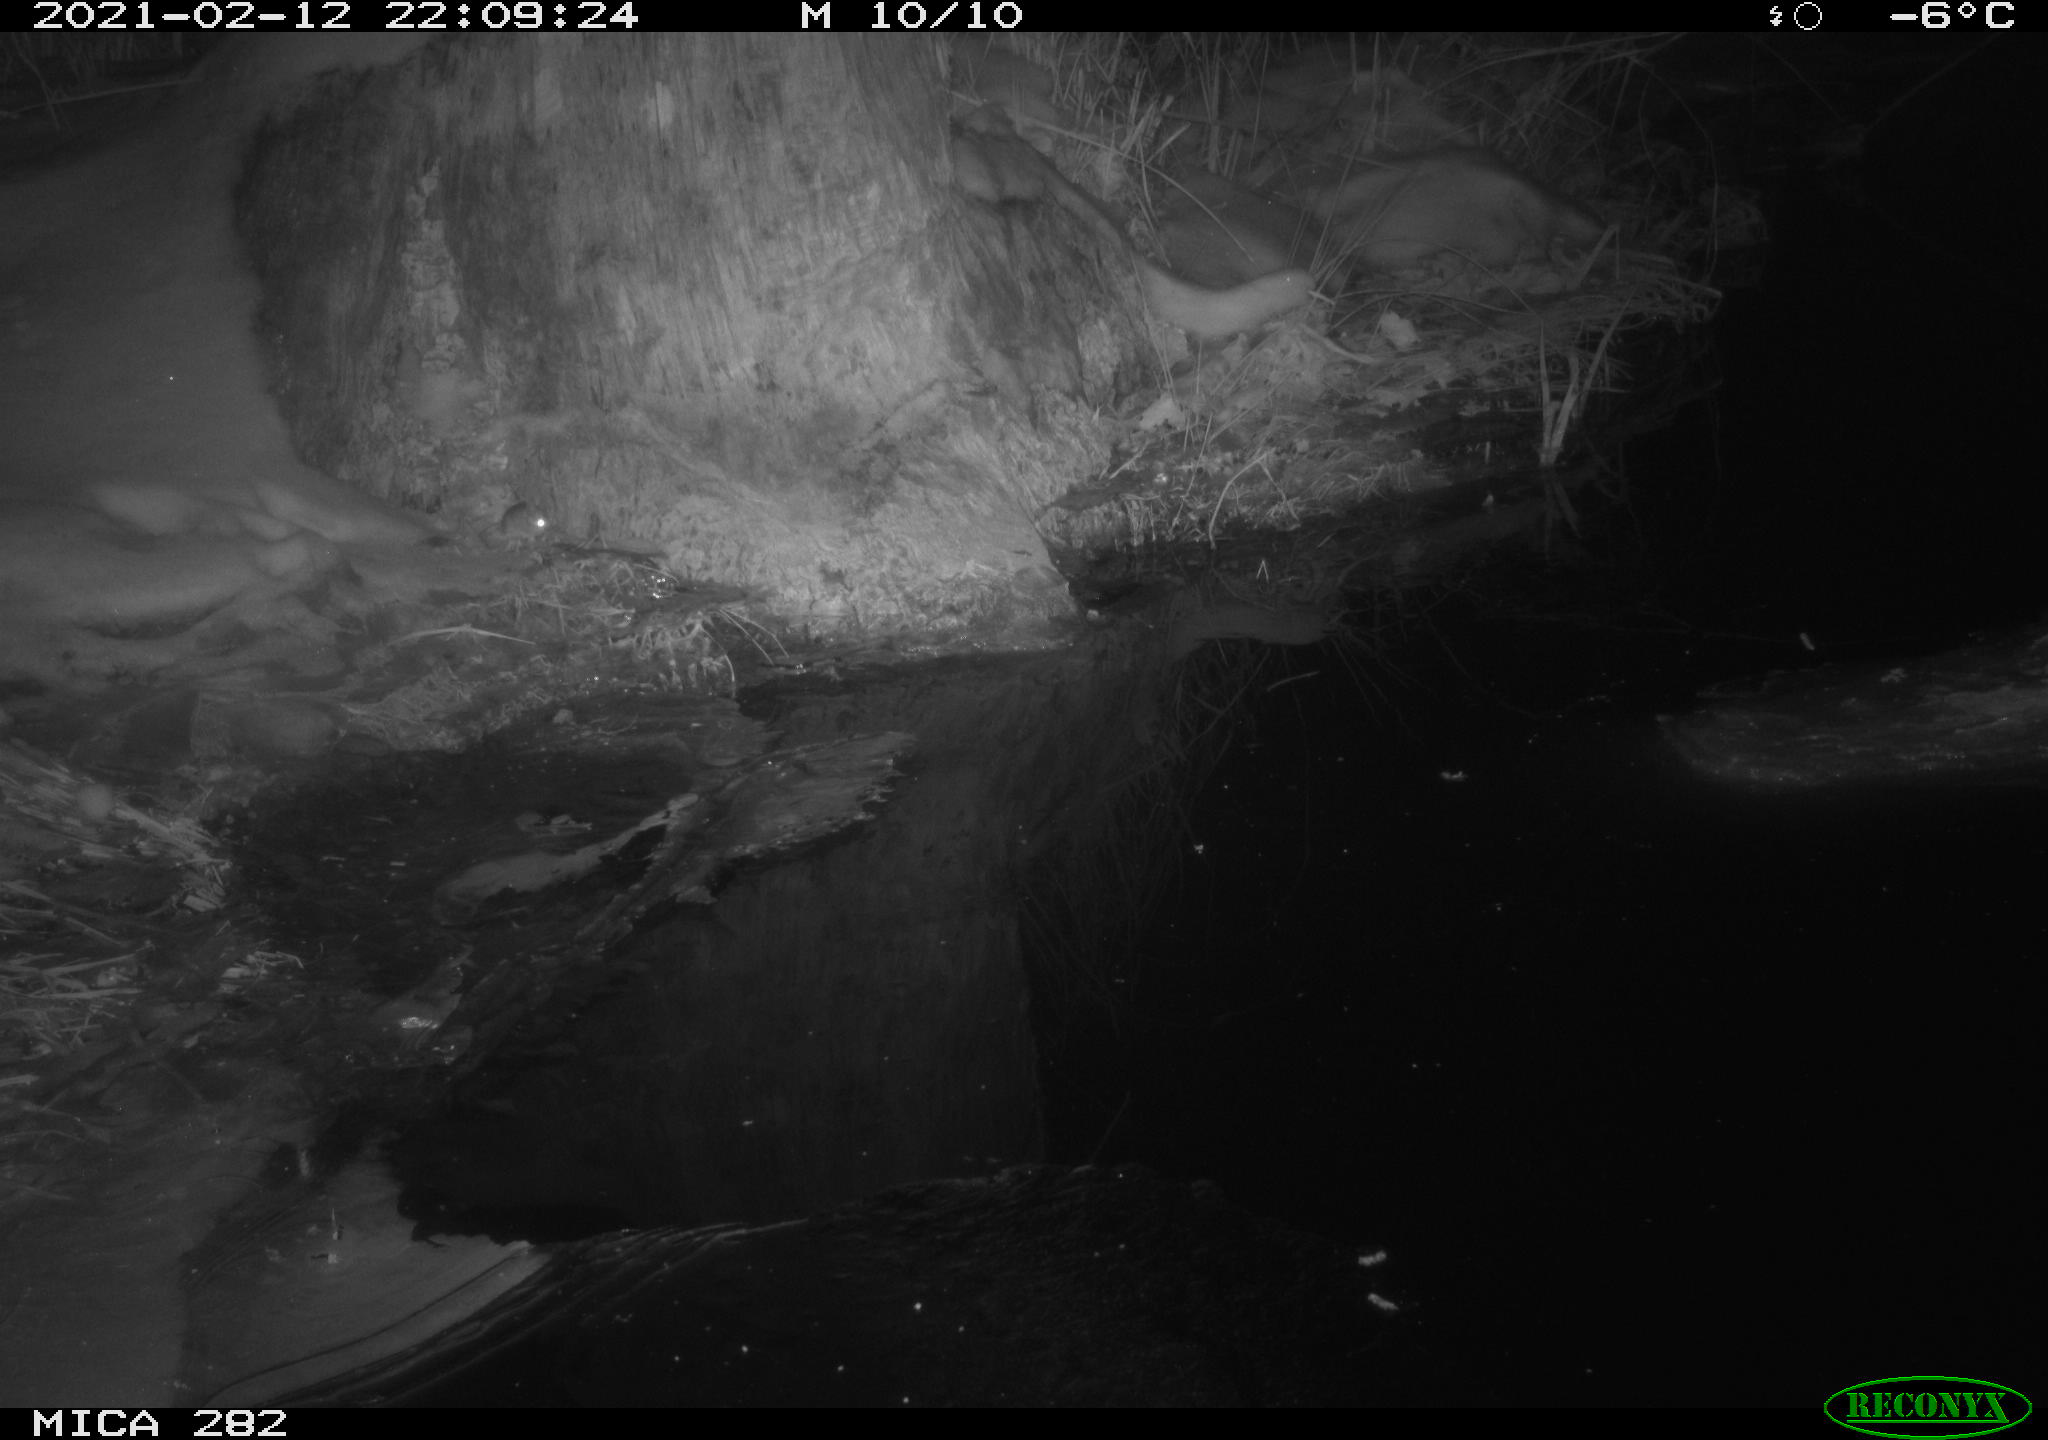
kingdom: Animalia
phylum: Chordata
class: Mammalia
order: Rodentia
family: Muridae
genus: Apodemus
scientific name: Apodemus sylvaticus
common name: Wood mouse
